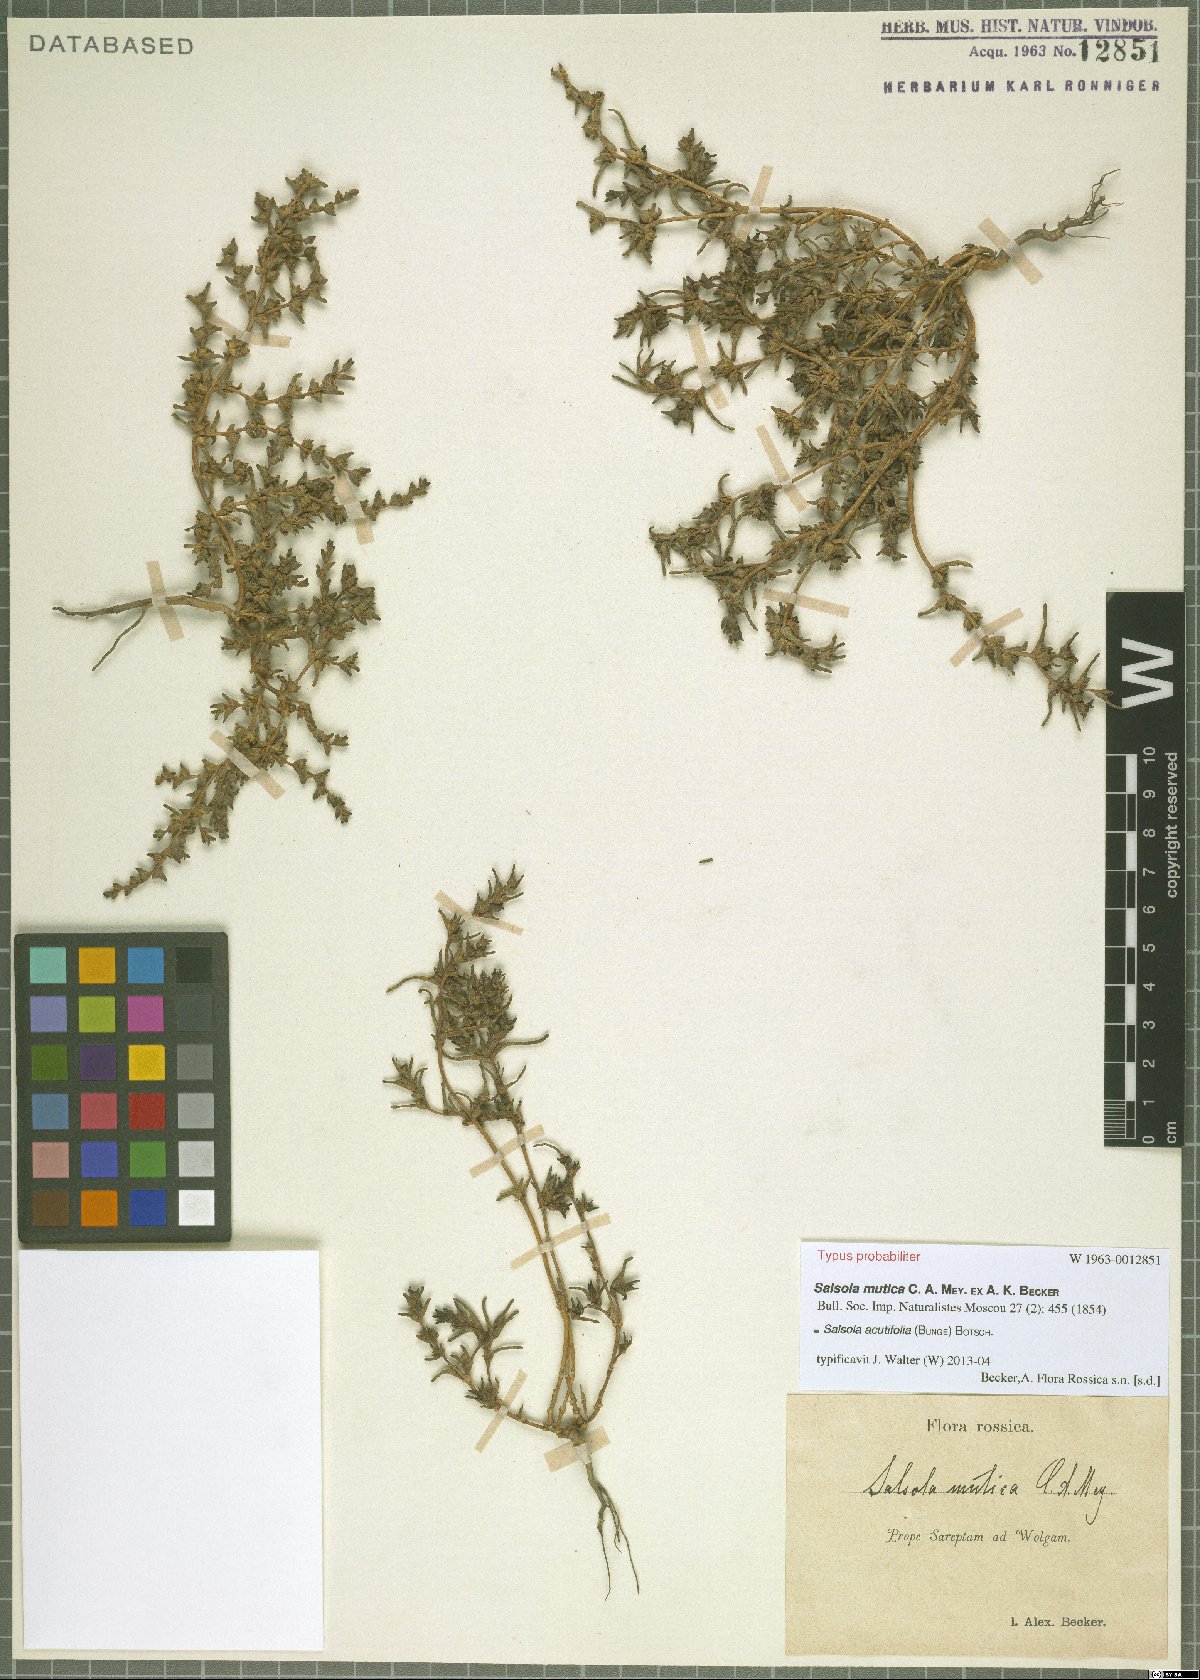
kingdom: Plantae
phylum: Tracheophyta
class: Magnoliopsida
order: Caryophyllales
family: Amaranthaceae
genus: Soda
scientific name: Soda acutifolia
